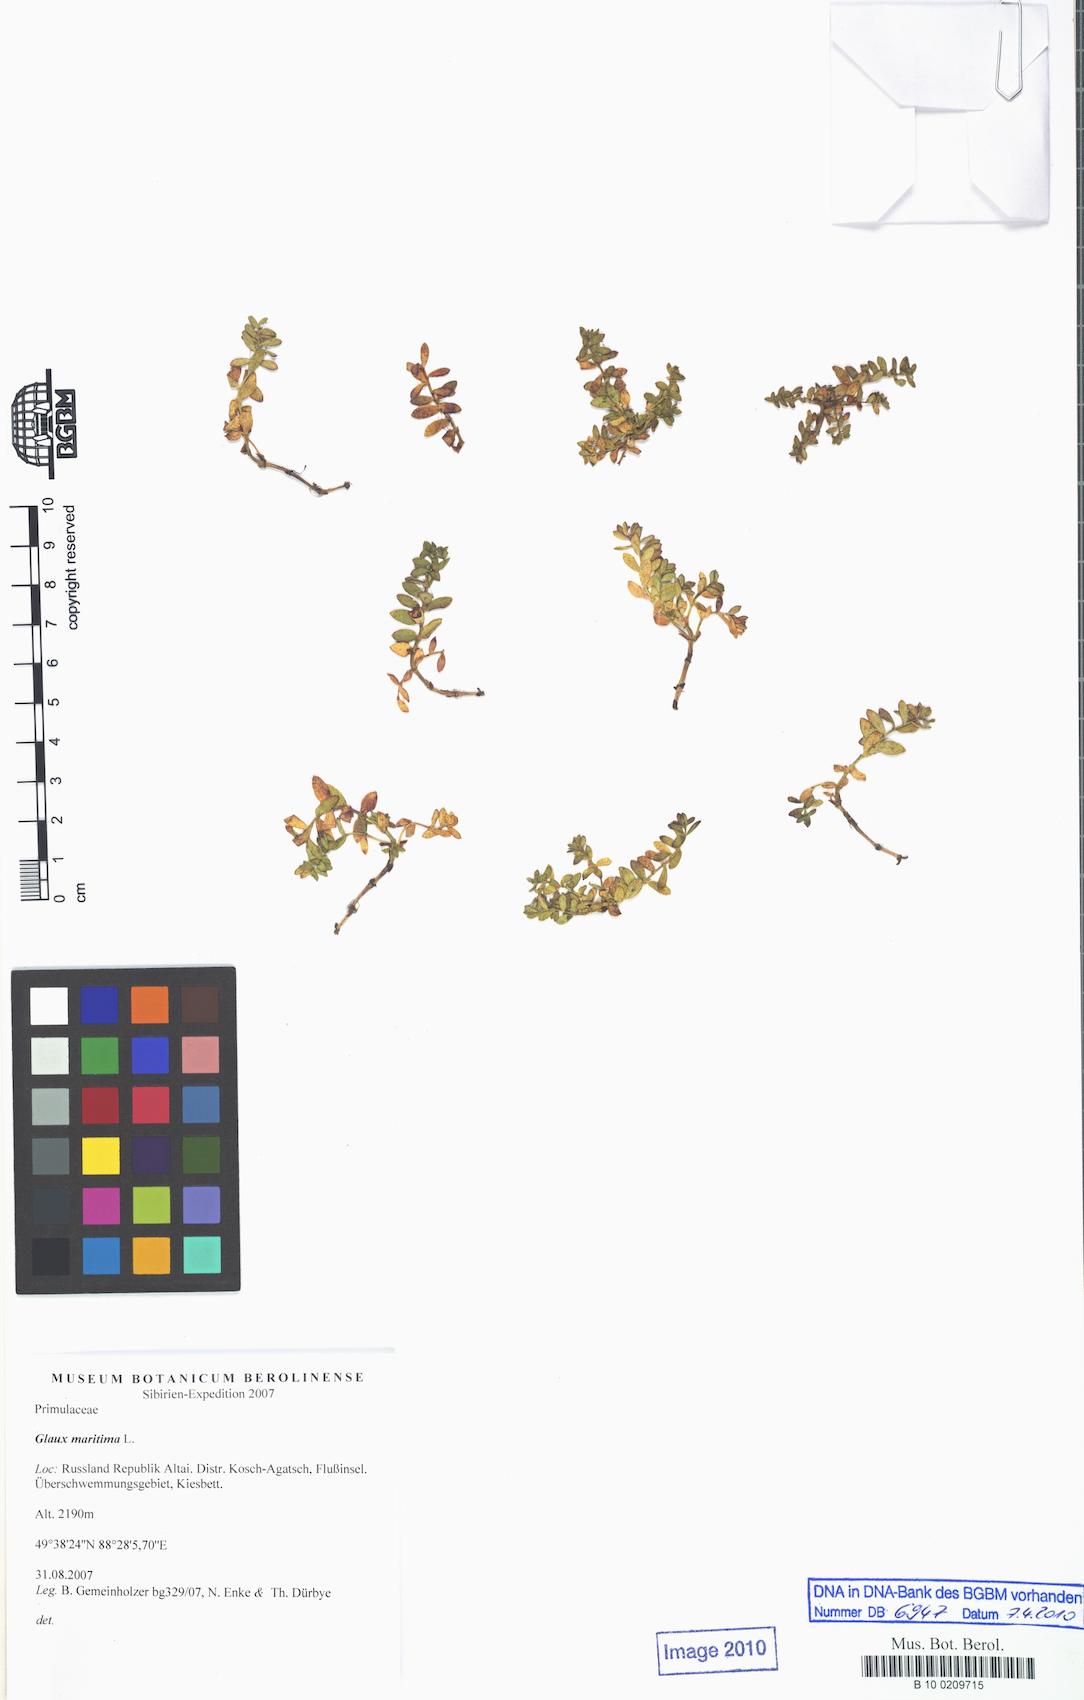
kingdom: Plantae
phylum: Tracheophyta
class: Magnoliopsida
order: Ericales
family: Primulaceae
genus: Lysimachia
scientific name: Lysimachia maritima
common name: Sea milkwort
